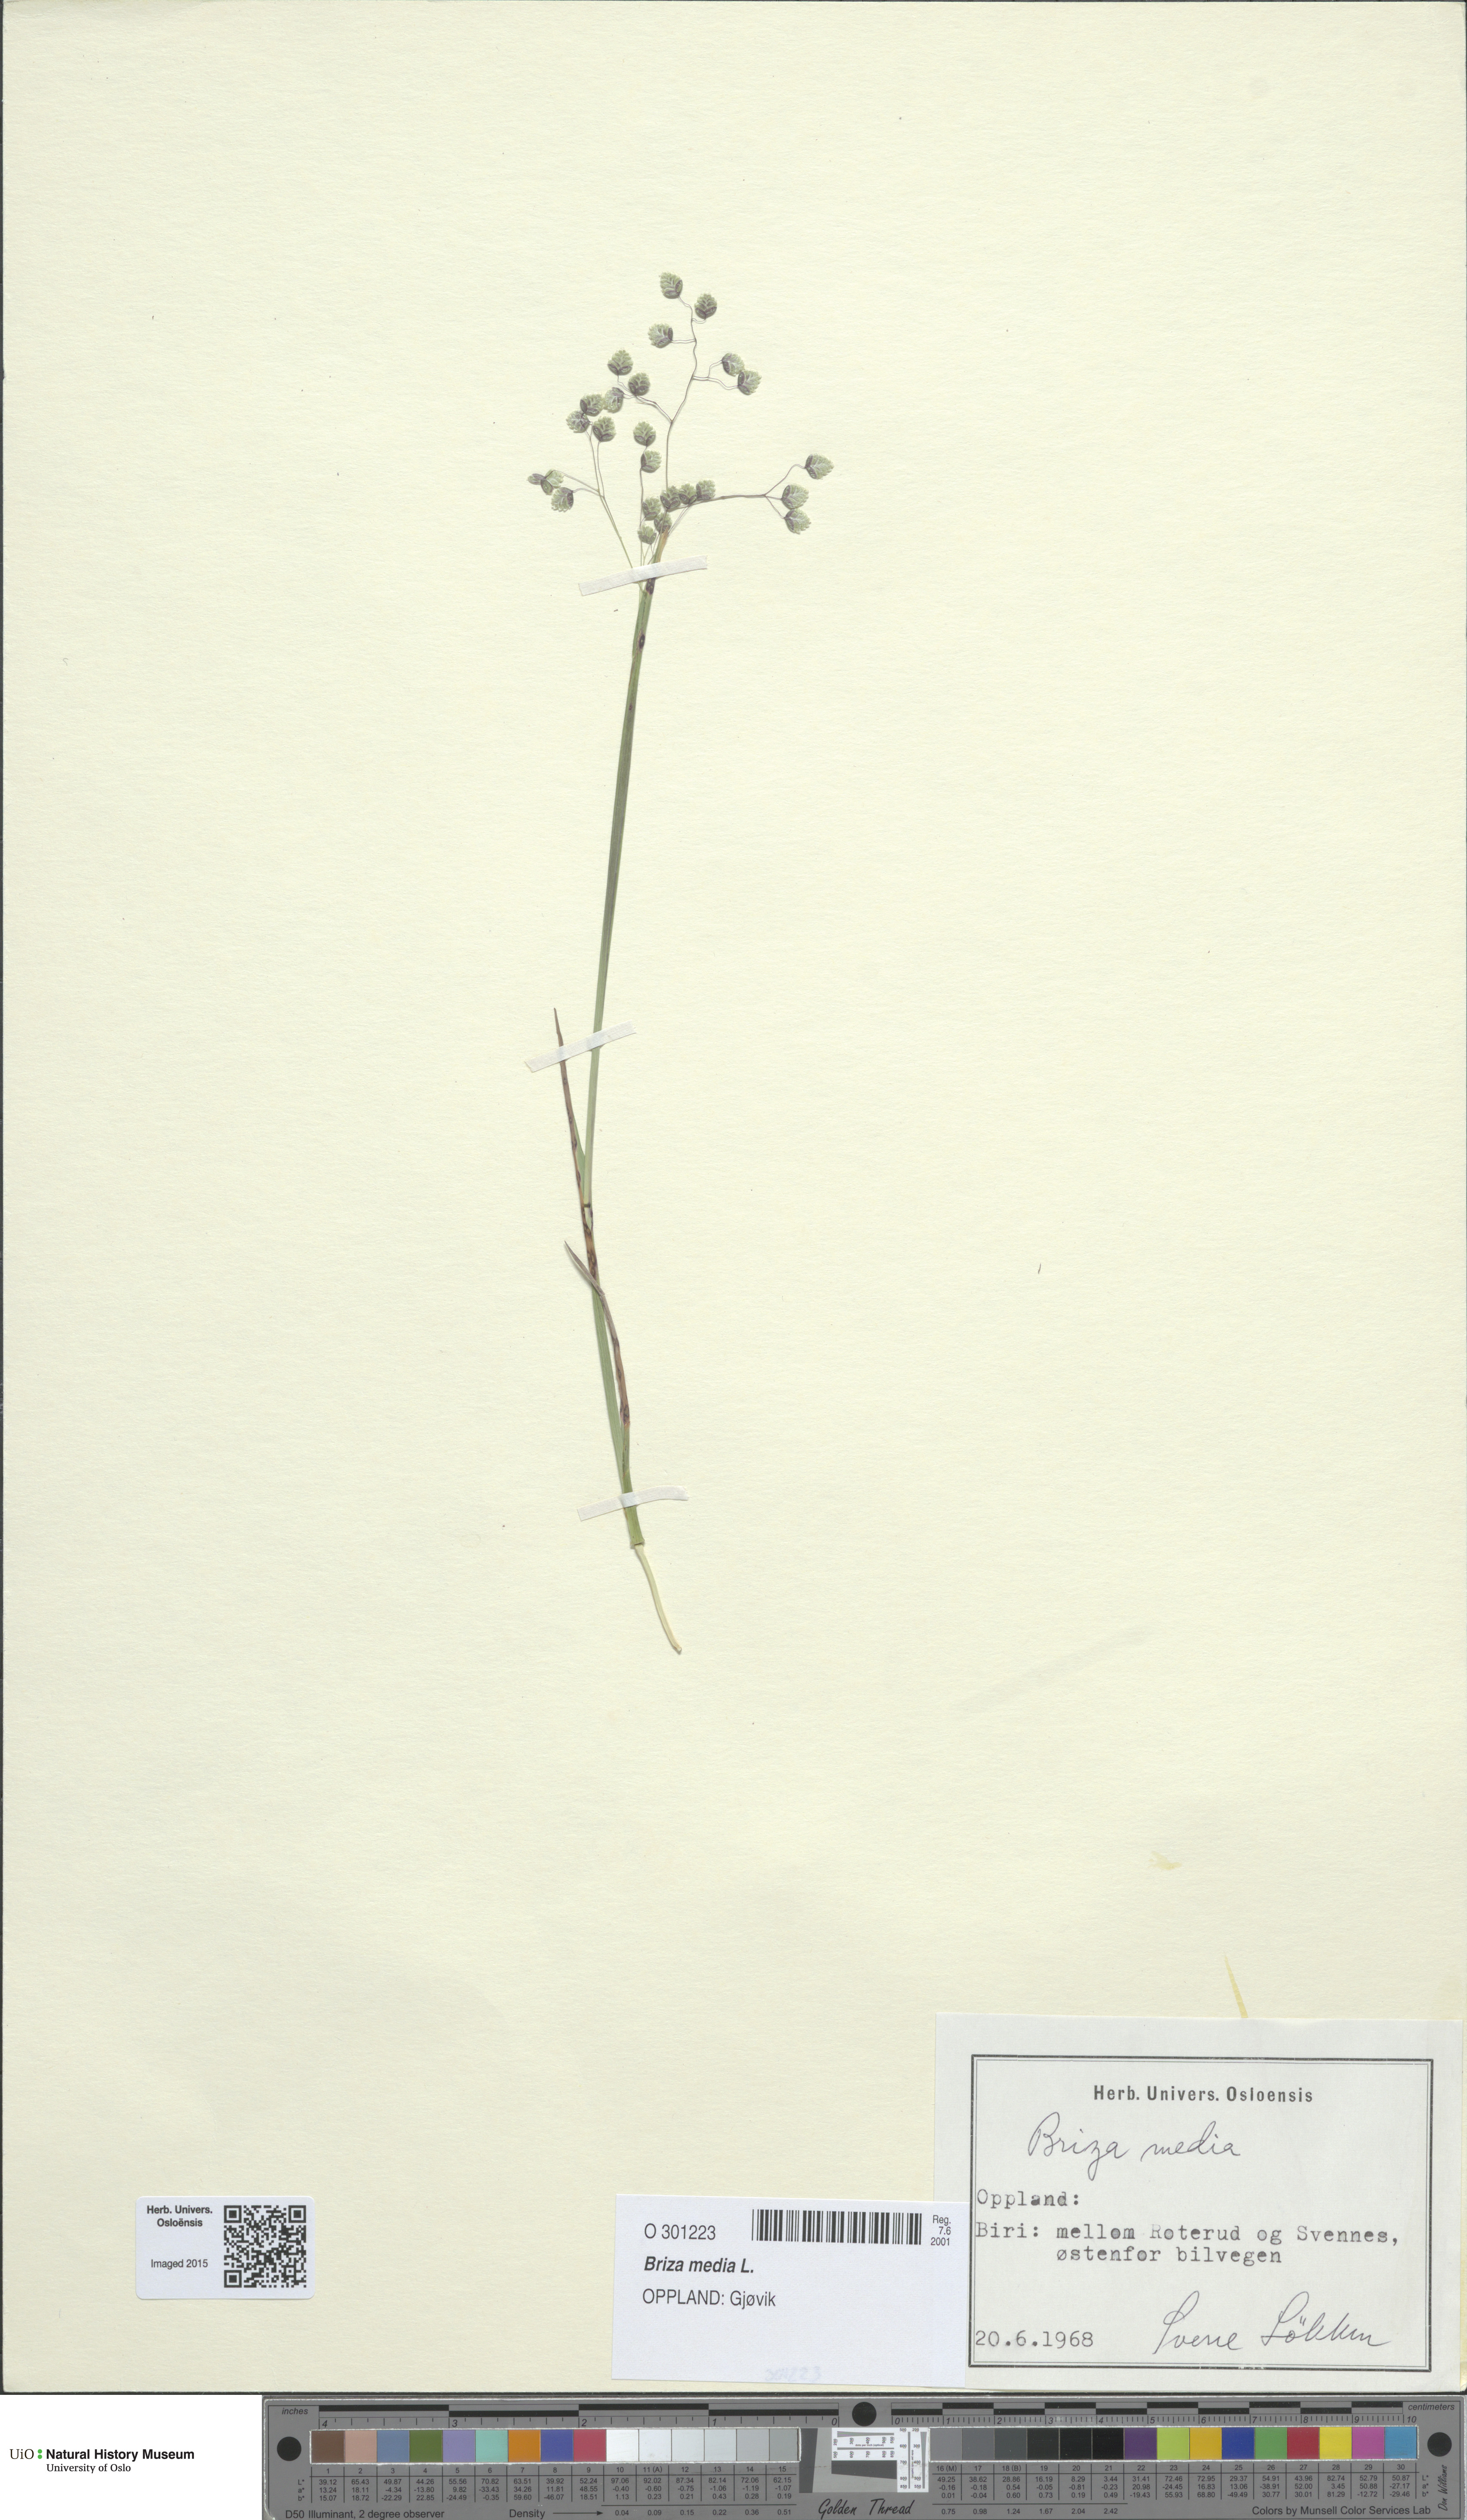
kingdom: Plantae
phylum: Tracheophyta
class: Liliopsida
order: Poales
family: Poaceae
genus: Briza
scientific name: Briza media
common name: Quaking grass
